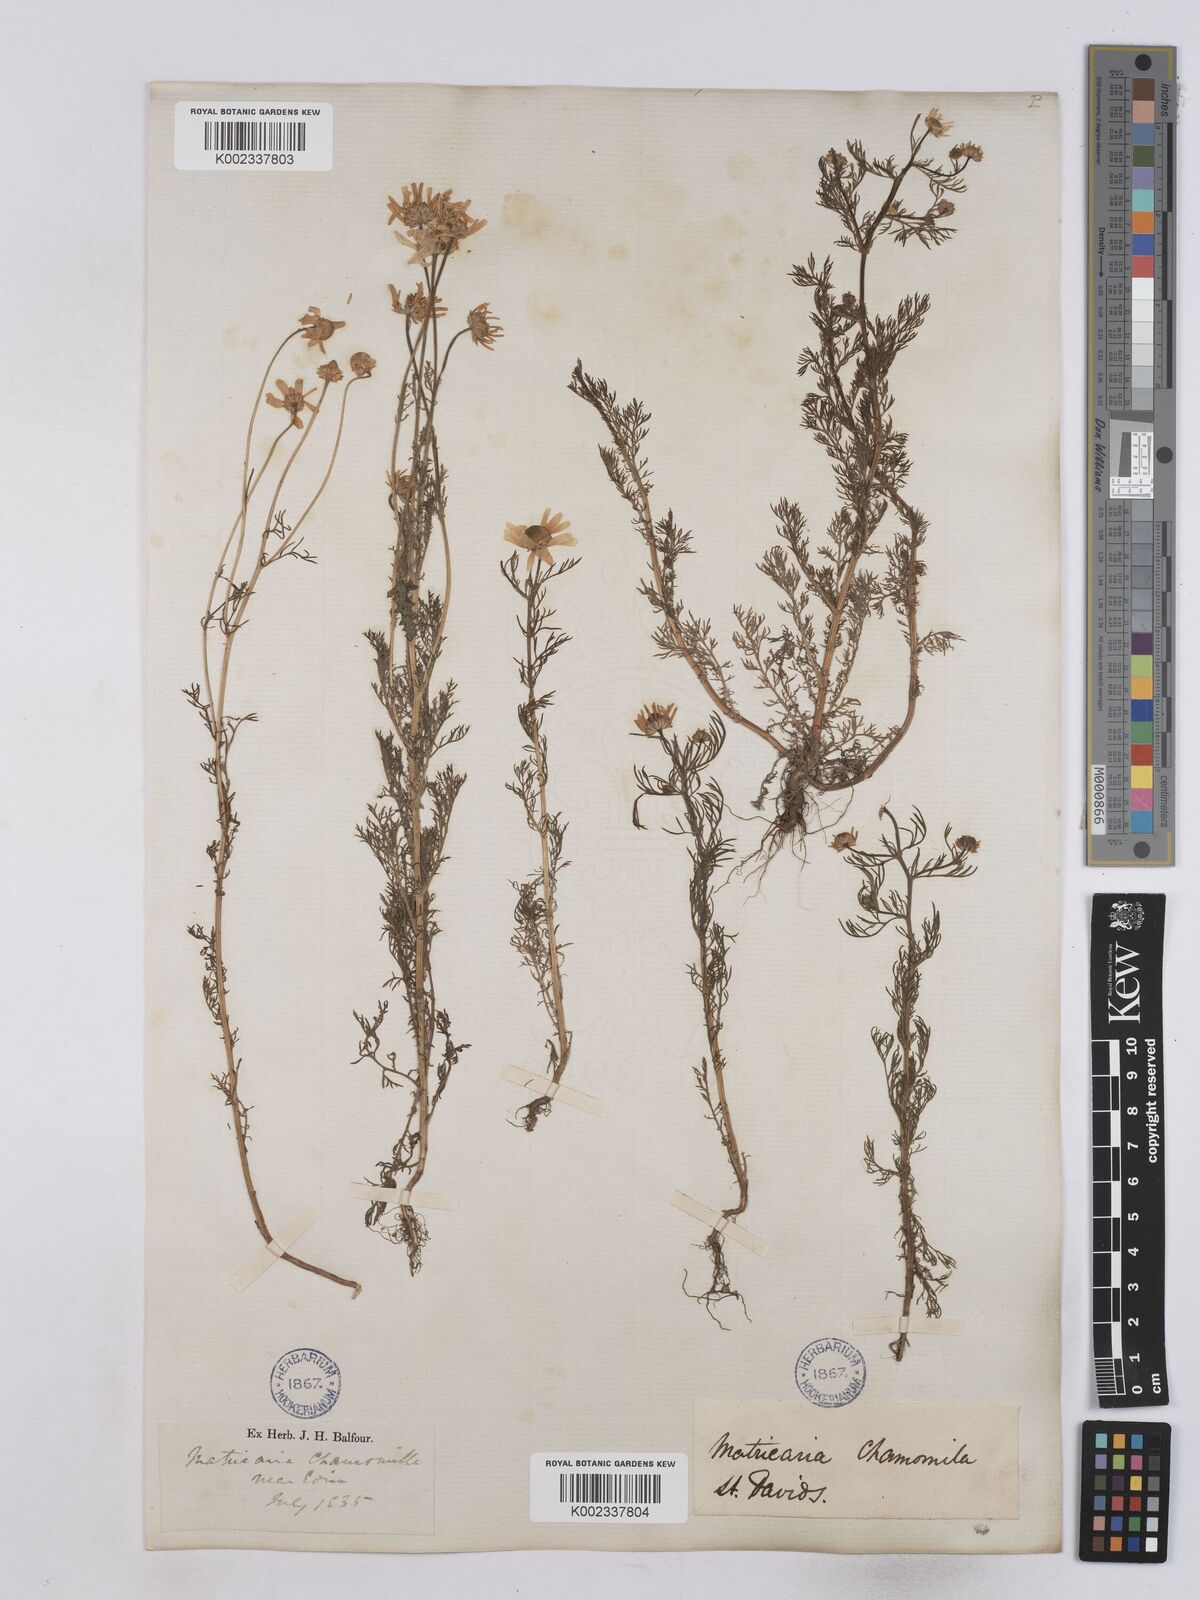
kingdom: Plantae
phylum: Tracheophyta
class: Magnoliopsida
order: Asterales
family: Asteraceae
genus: Matricaria
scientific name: Matricaria chamomilla
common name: Scented mayweed
